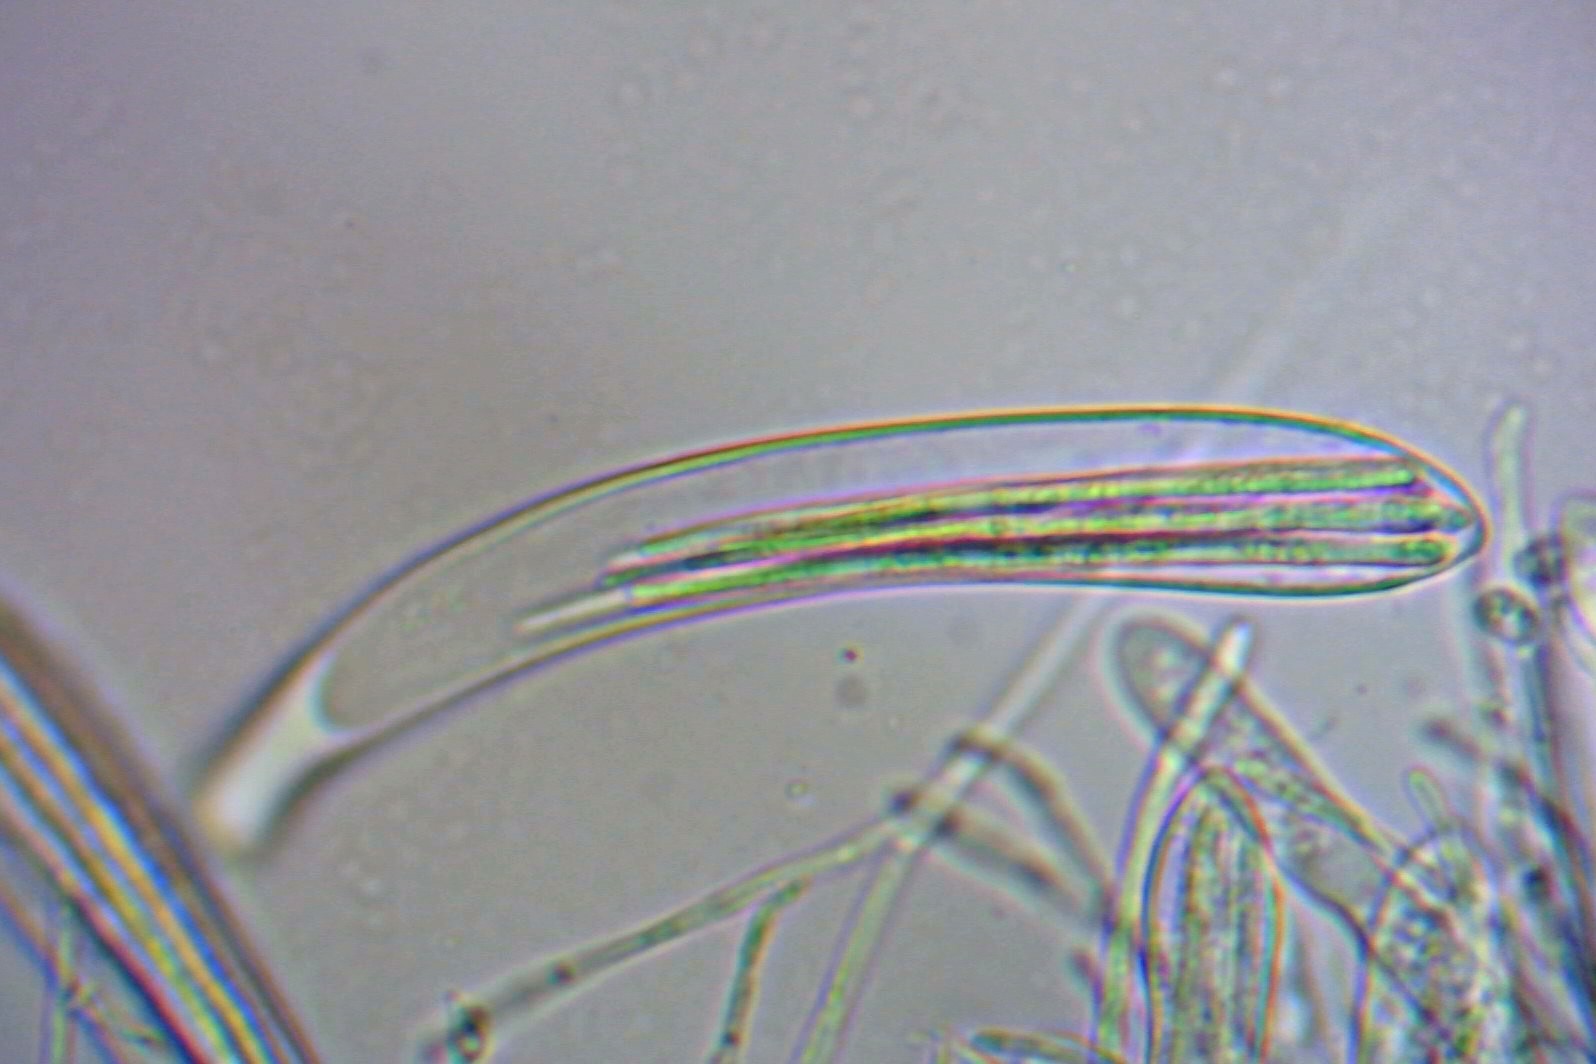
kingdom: Fungi
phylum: Ascomycota
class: Leotiomycetes
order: Helotiales
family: Arachnopezizaceae
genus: Arachnopeziza
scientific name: Arachnopeziza aurata
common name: bleggul spindskive
